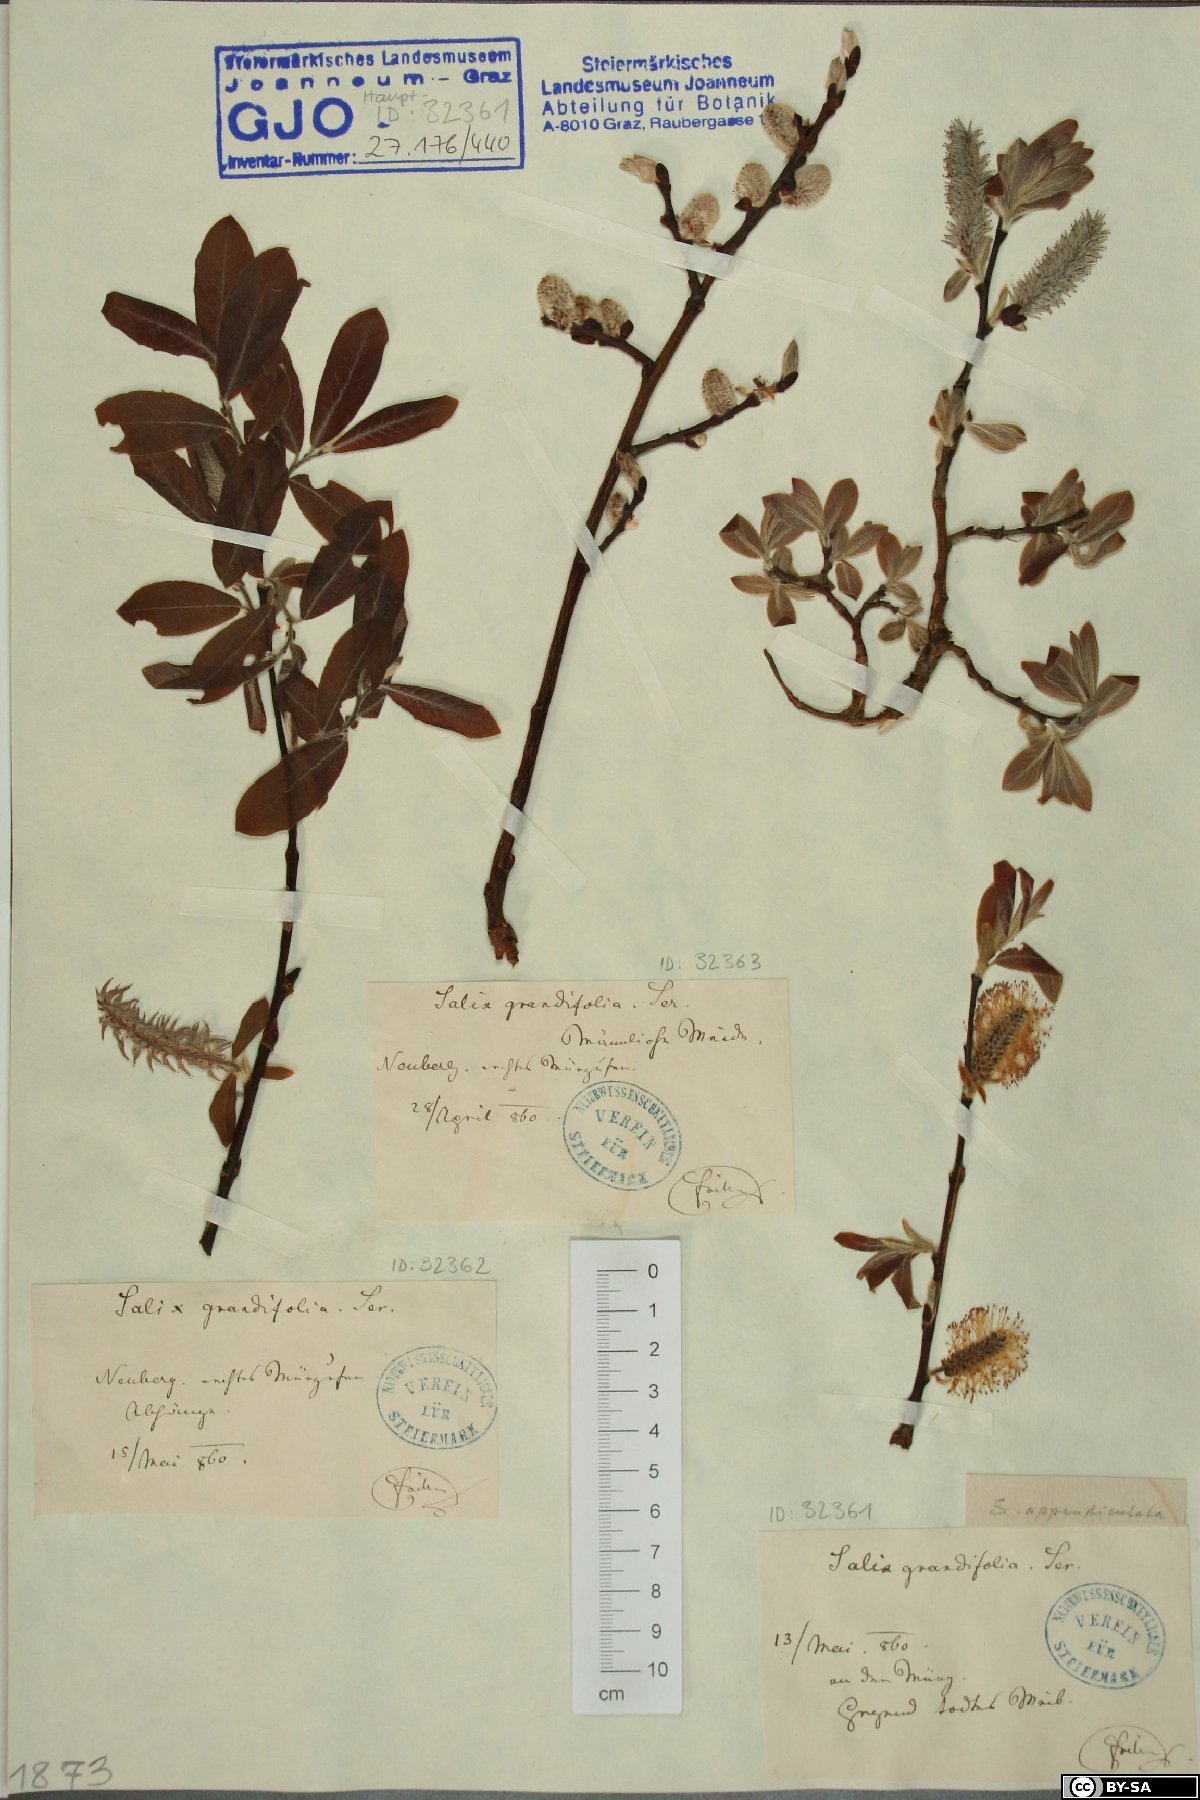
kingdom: Plantae
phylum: Tracheophyta
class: Magnoliopsida
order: Malpighiales
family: Salicaceae
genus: Salix
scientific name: Salix appendiculata
